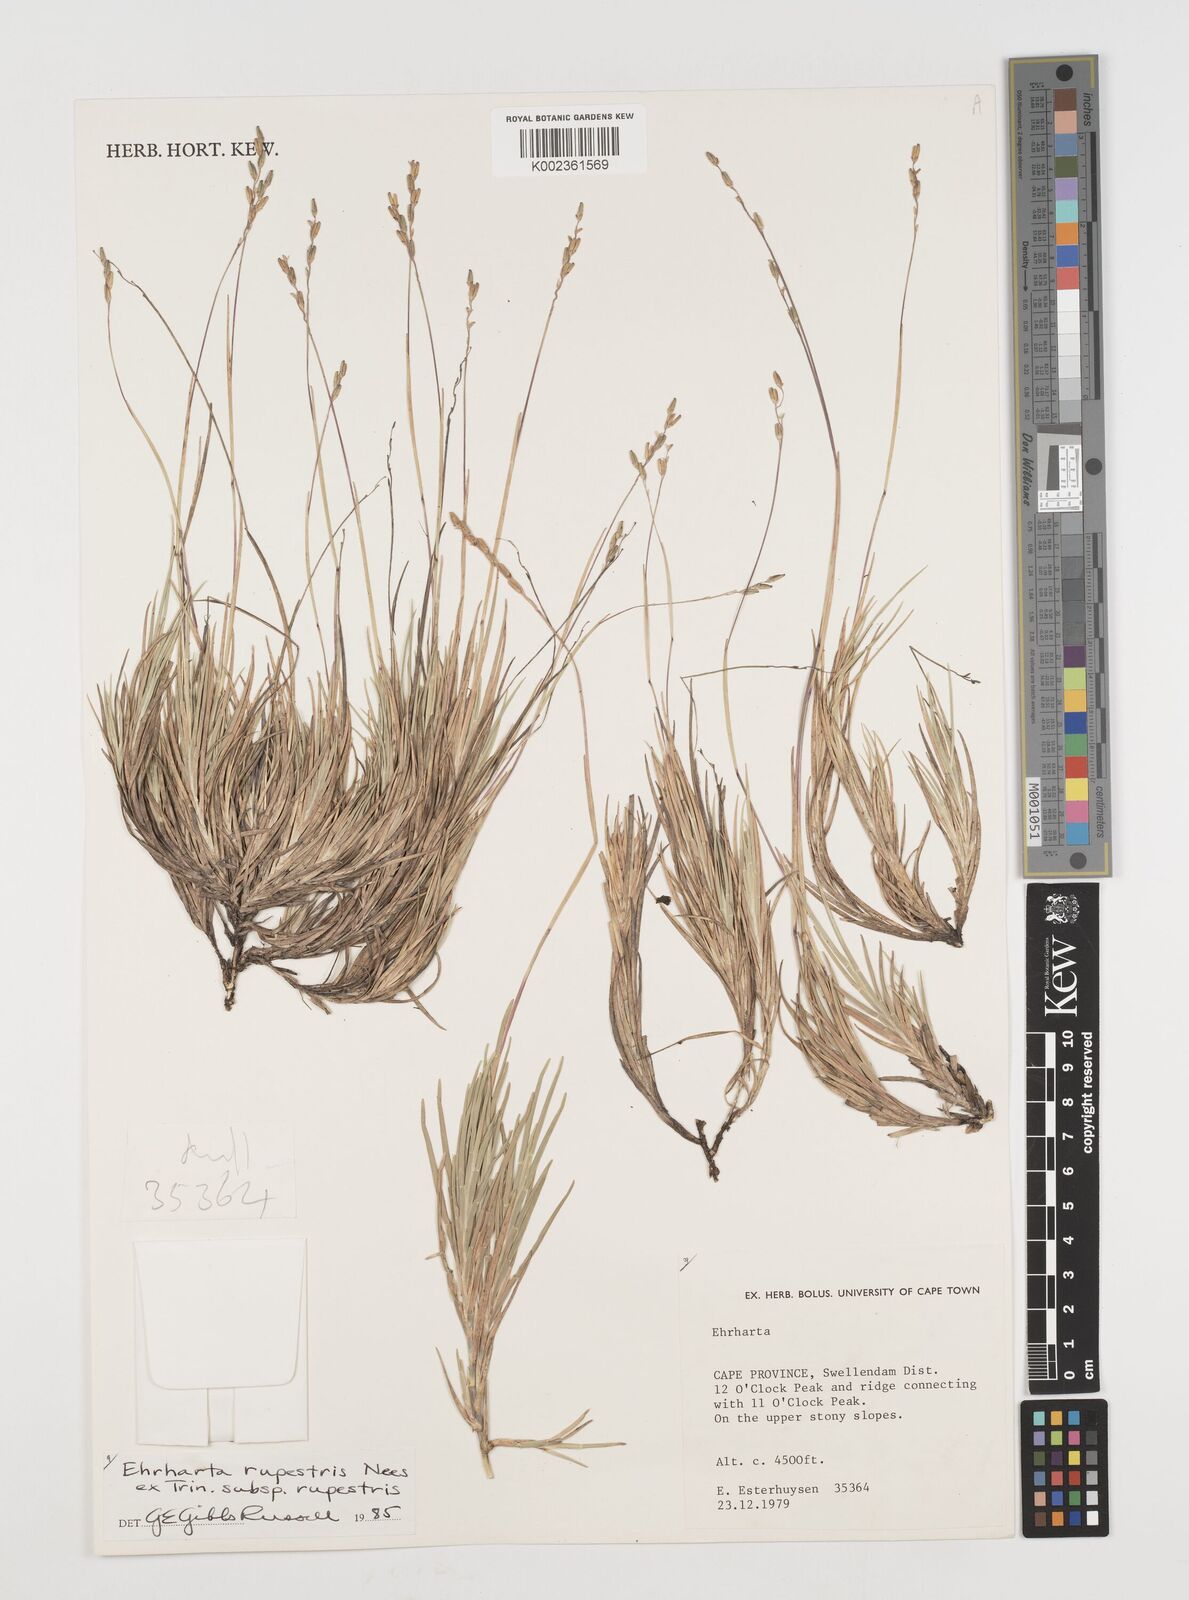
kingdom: Plantae
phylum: Tracheophyta
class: Liliopsida
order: Poales
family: Poaceae
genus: Ehrharta
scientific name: Ehrharta rupestris
